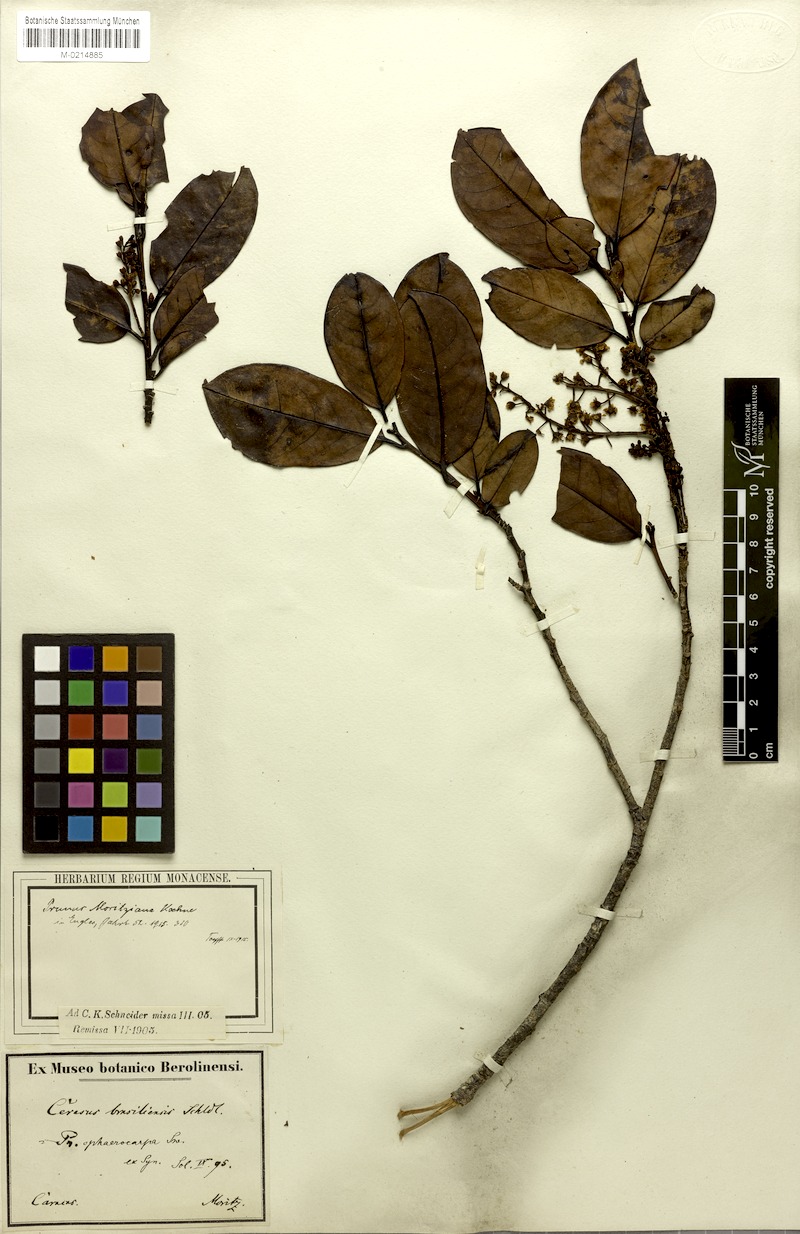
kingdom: Plantae
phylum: Tracheophyta
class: Magnoliopsida
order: Rosales
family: Rosaceae
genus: Prunus
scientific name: Prunus moritziana
